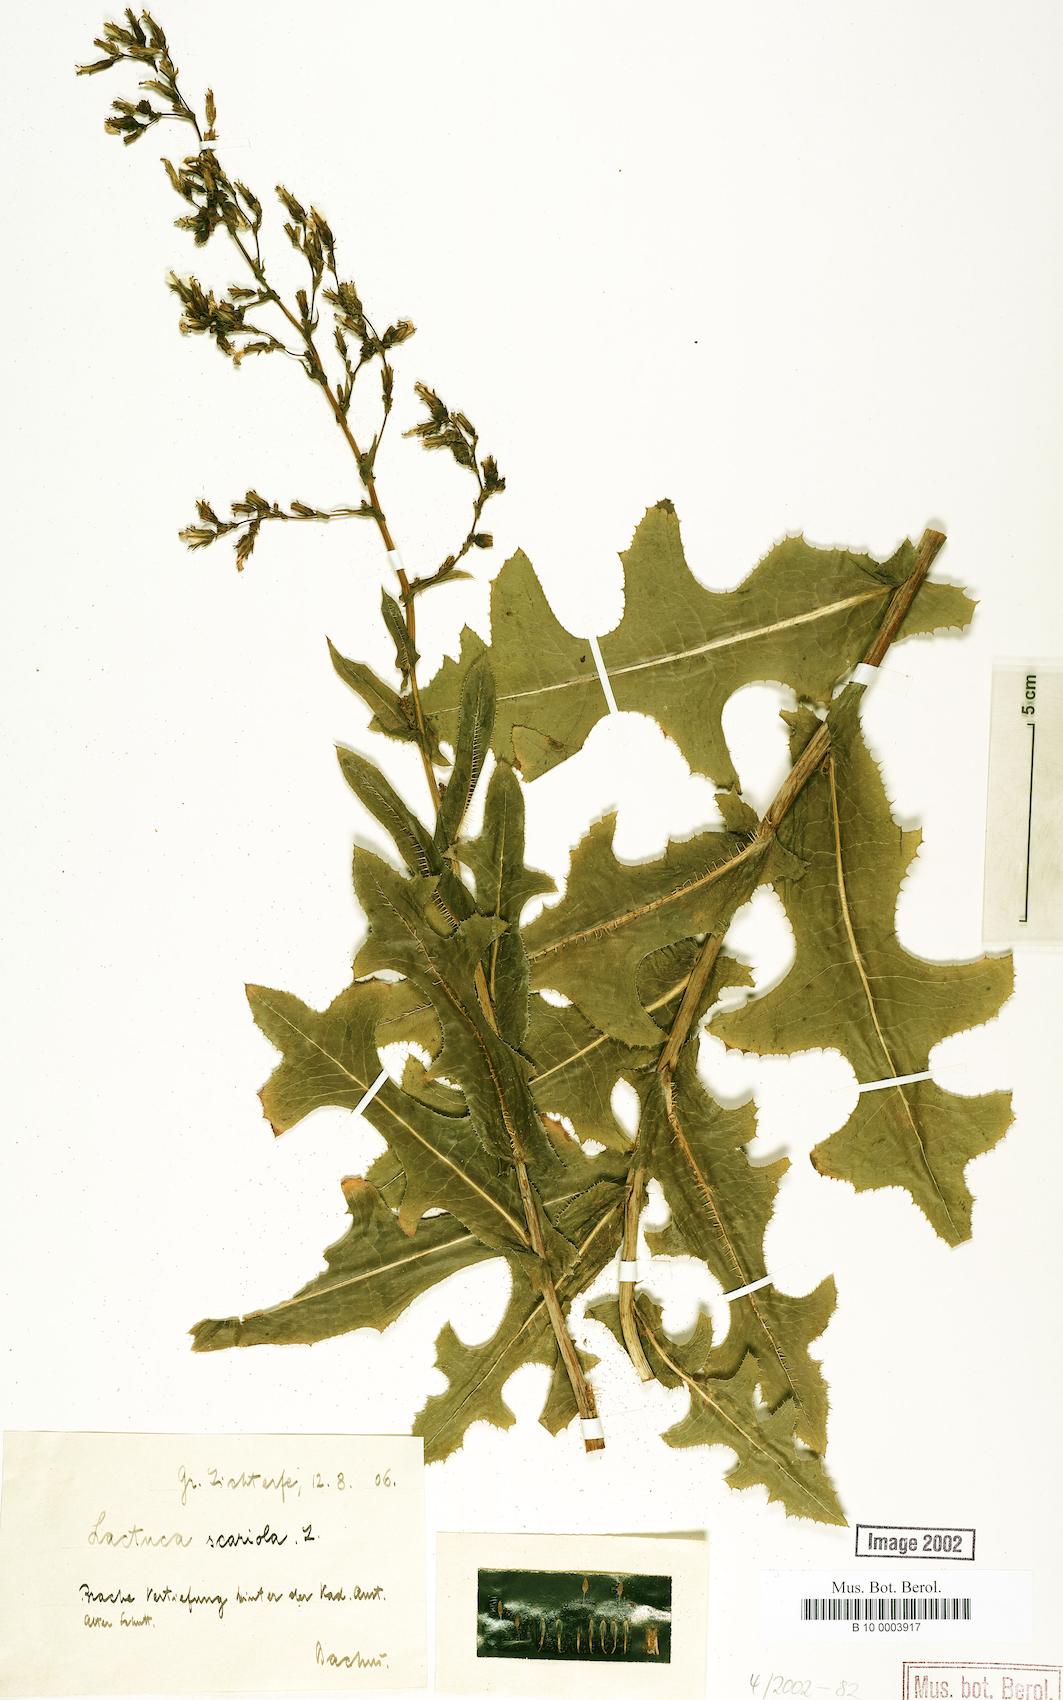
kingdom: Plantae
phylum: Tracheophyta
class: Magnoliopsida
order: Asterales
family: Asteraceae
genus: Lactuca
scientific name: Lactuca serriola
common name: Prickly lettuce
